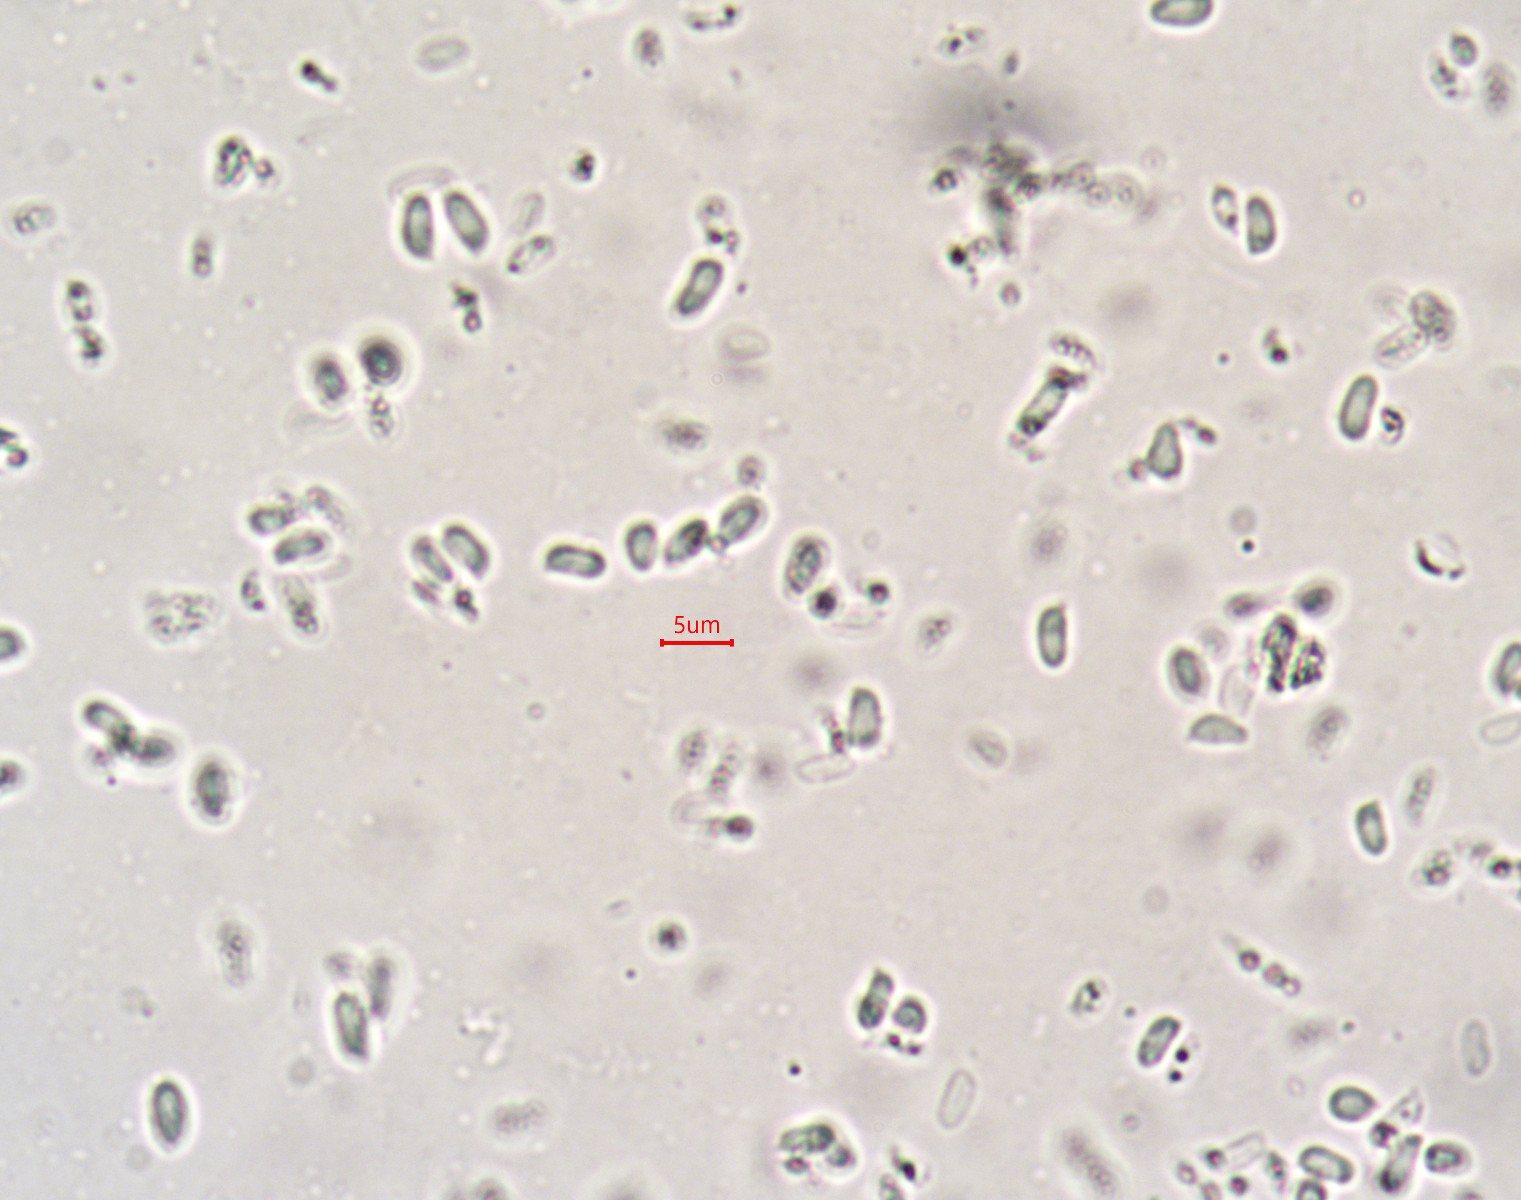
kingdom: Fungi
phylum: Basidiomycota
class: Agaricomycetes
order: Agaricales
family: Mycenaceae
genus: Mycena
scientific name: Mycena tintinnabulum
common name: vinter-huesvamp
